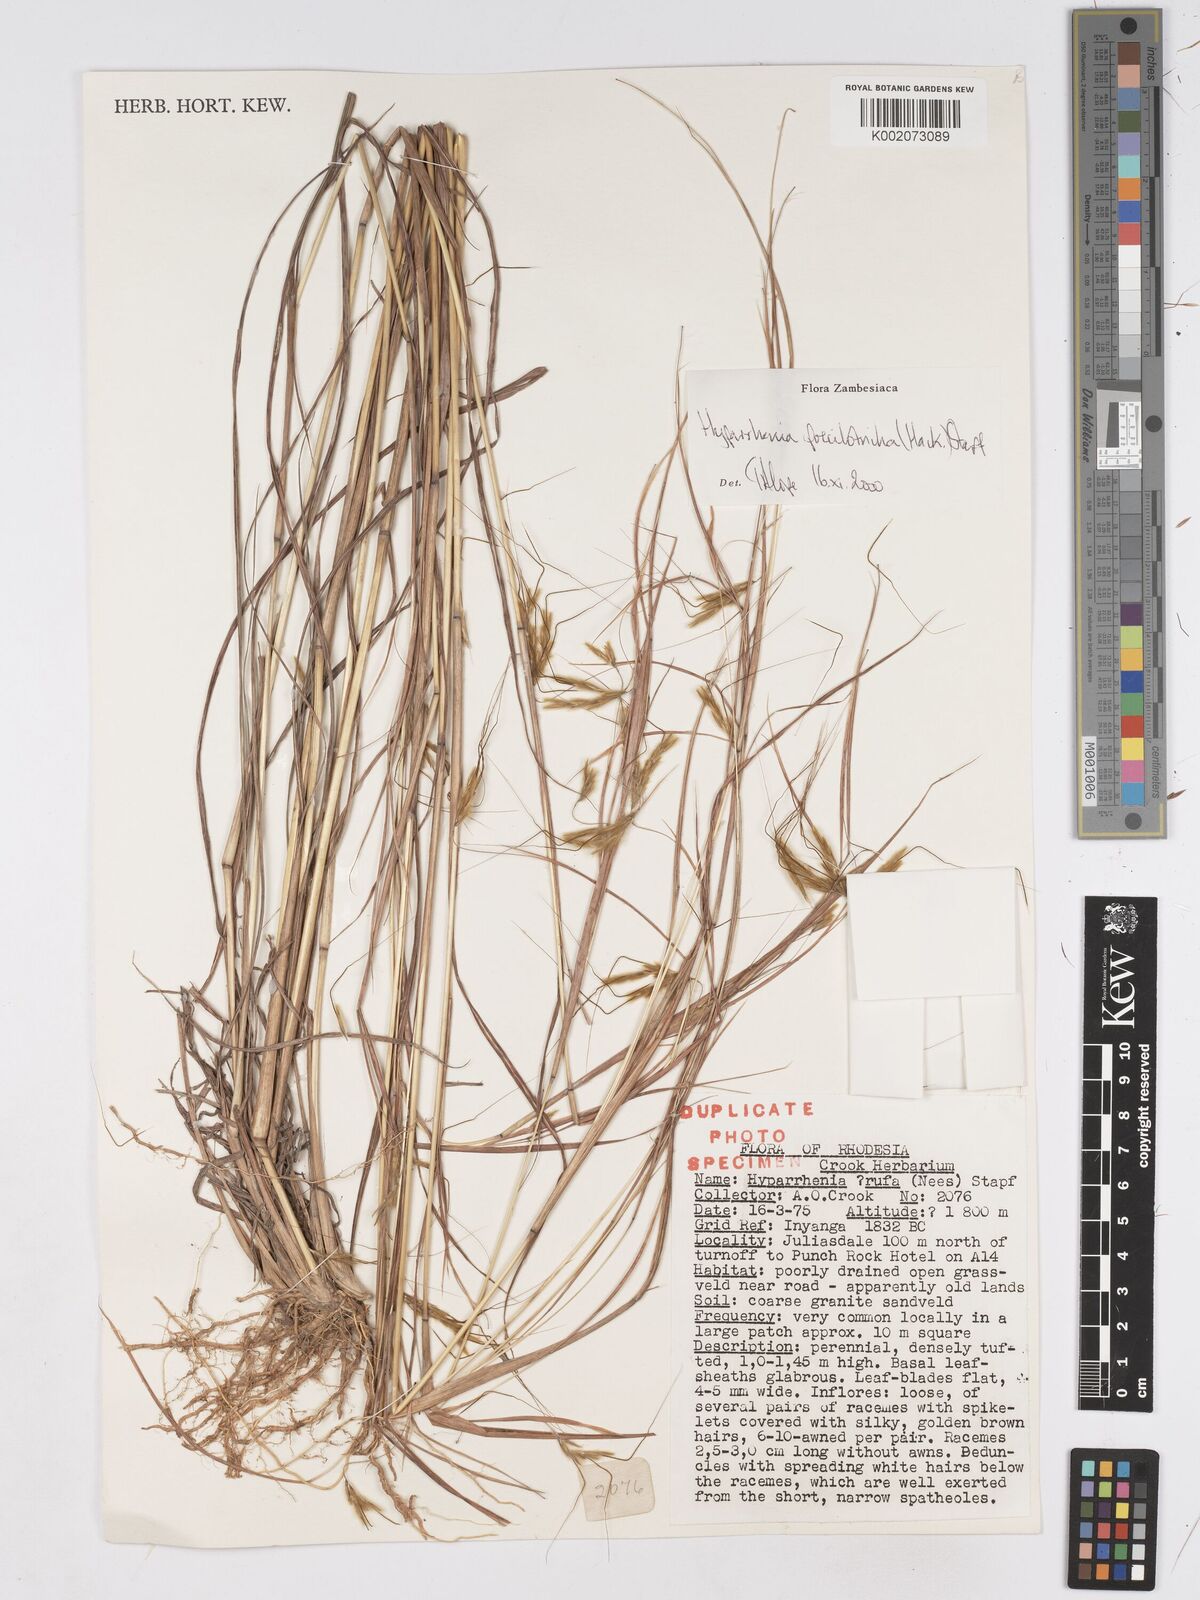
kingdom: Plantae
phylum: Tracheophyta
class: Liliopsida
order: Poales
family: Poaceae
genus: Hyparrhenia
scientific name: Hyparrhenia poecilotricha
